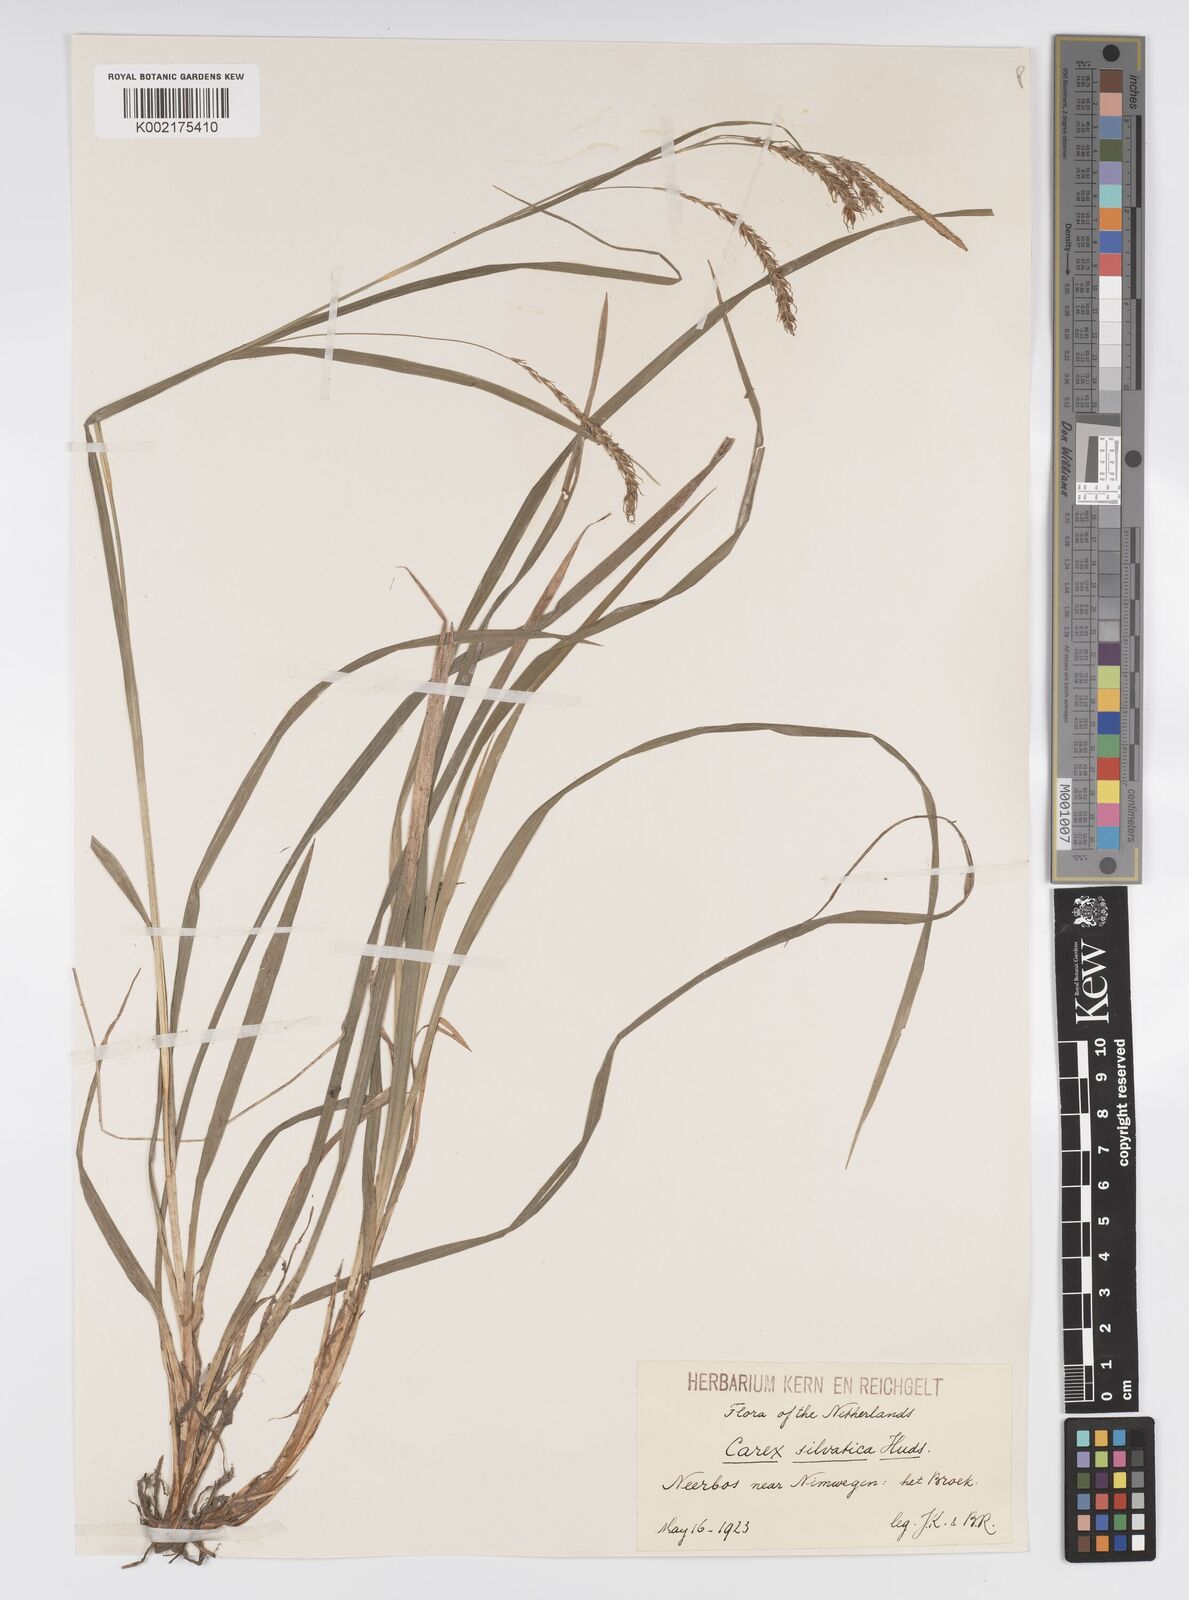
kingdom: Plantae
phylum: Tracheophyta
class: Liliopsida
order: Poales
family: Cyperaceae
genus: Carex
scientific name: Carex sylvatica
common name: Wood-sedge
